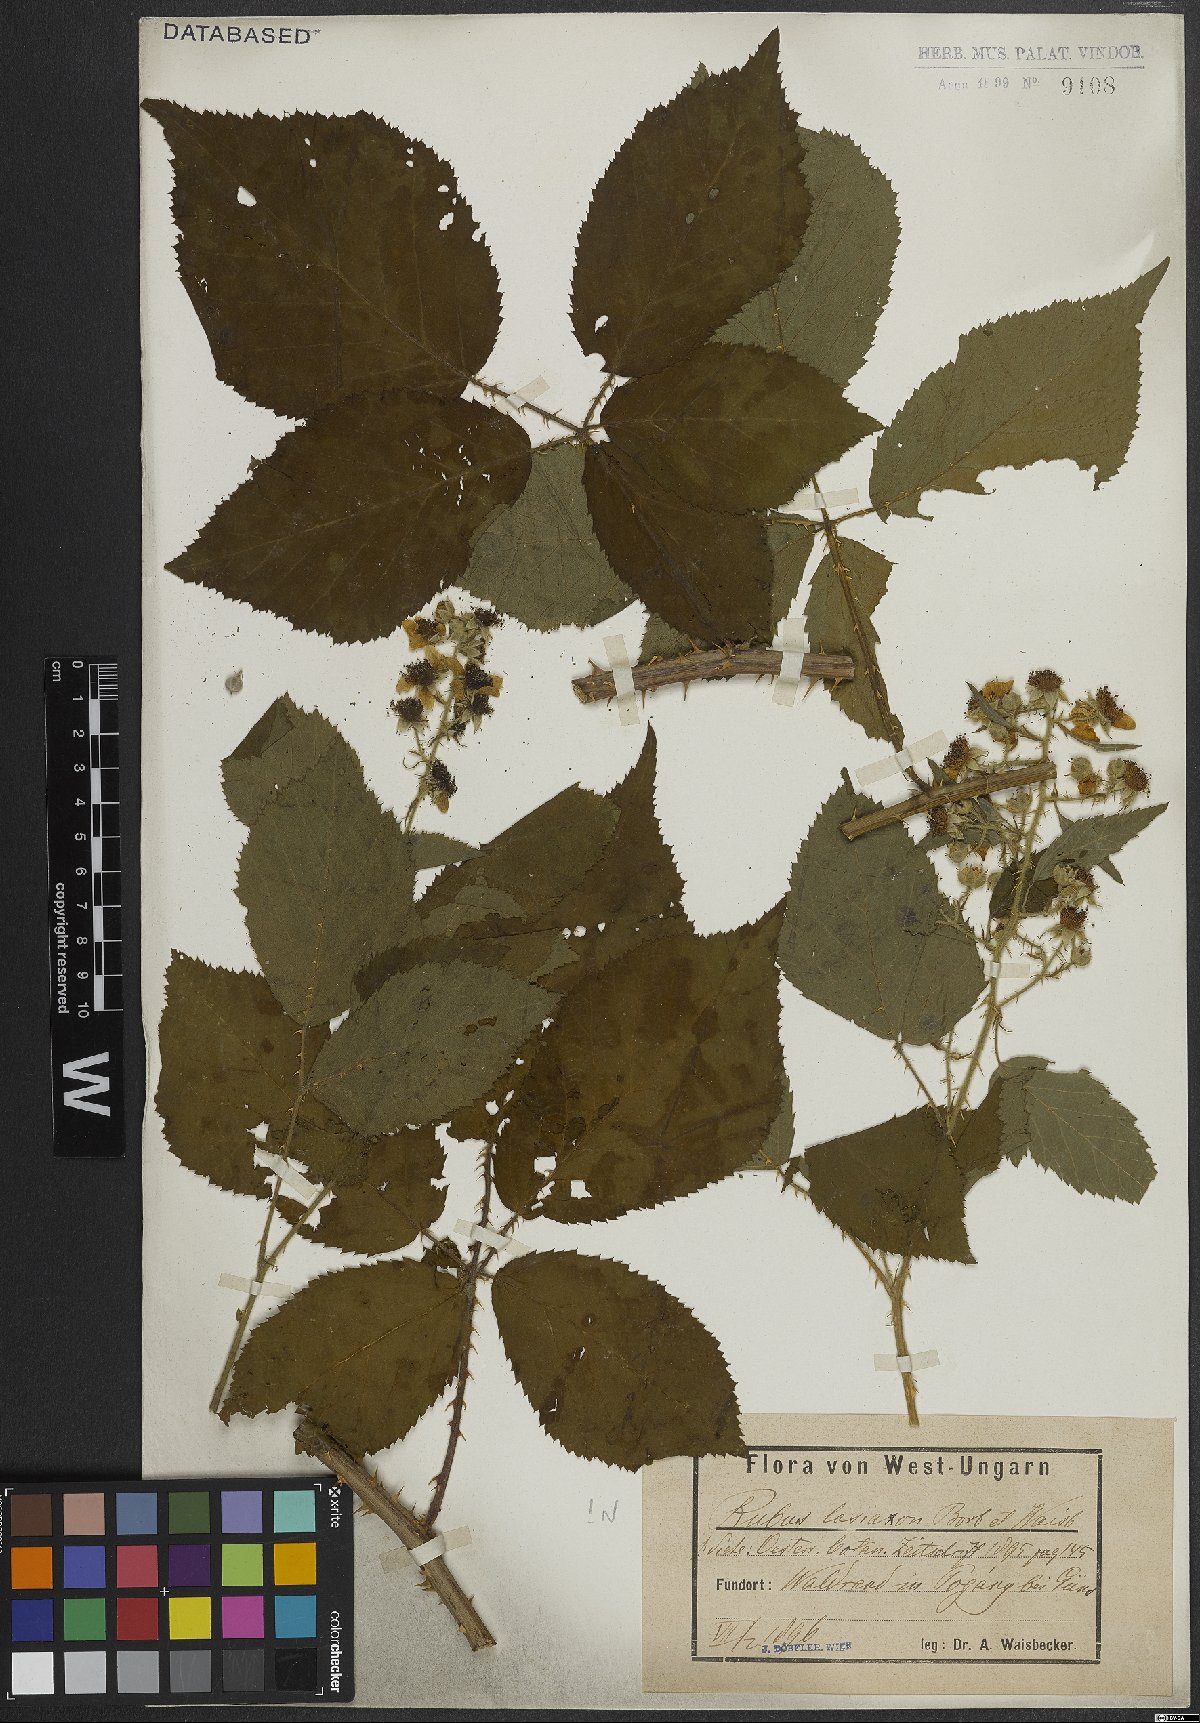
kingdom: Plantae
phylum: Tracheophyta
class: Magnoliopsida
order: Rosales
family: Rosaceae
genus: Rubus
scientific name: Rubus ferox
